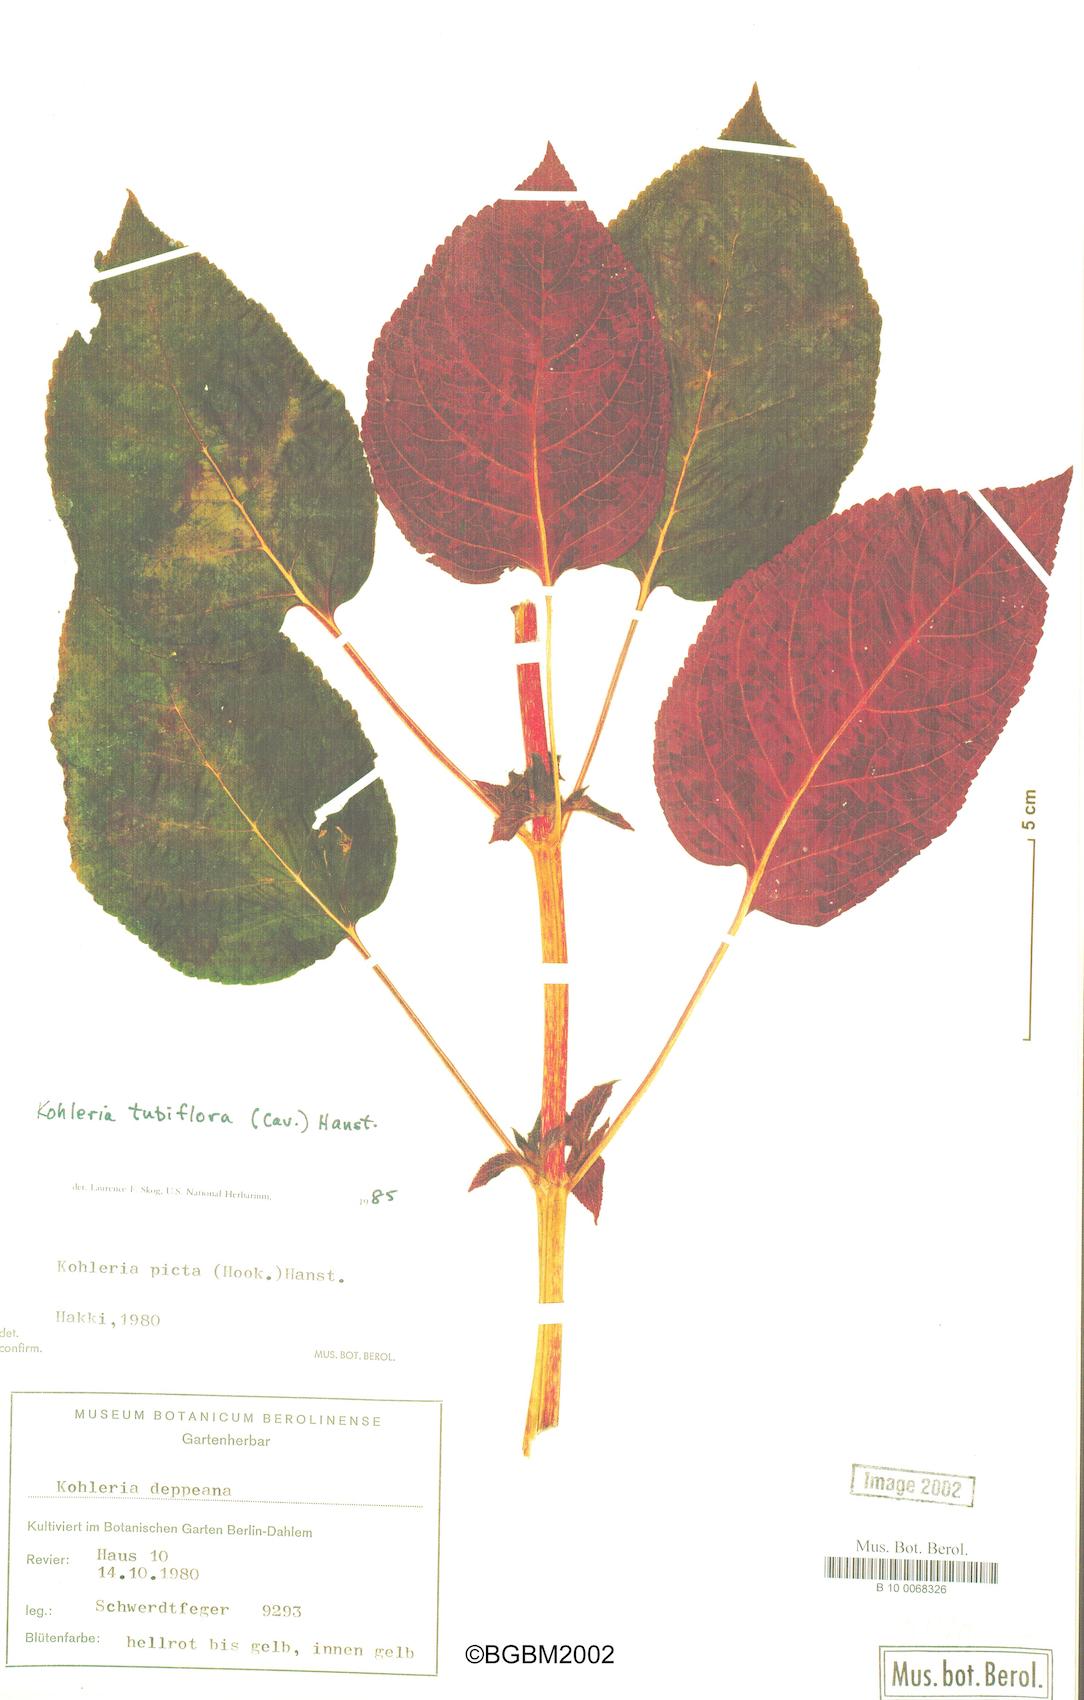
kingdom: Plantae
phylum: Tracheophyta
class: Magnoliopsida
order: Lamiales
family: Gesneriaceae
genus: Kohleria
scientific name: Kohleria tubiflora
